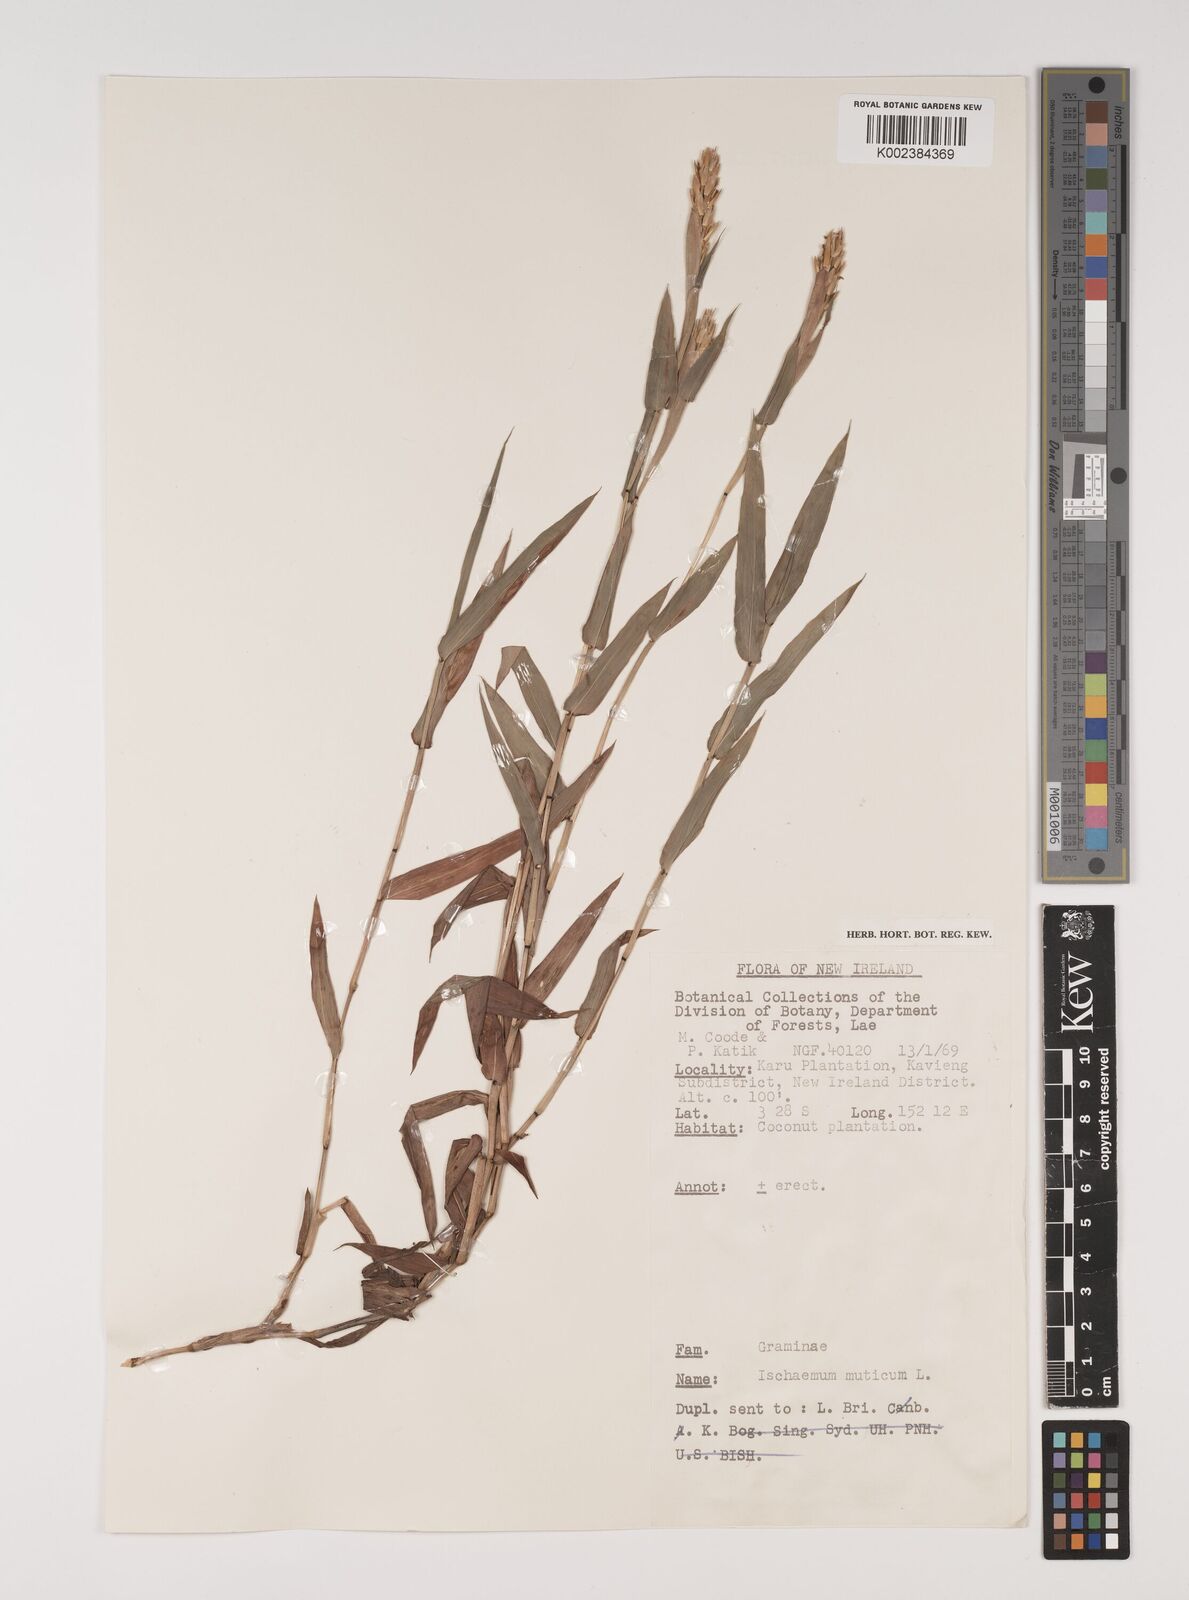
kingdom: Plantae
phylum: Tracheophyta
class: Liliopsida
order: Poales
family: Poaceae
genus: Ischaemum
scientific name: Ischaemum muticum
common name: Drought grass
